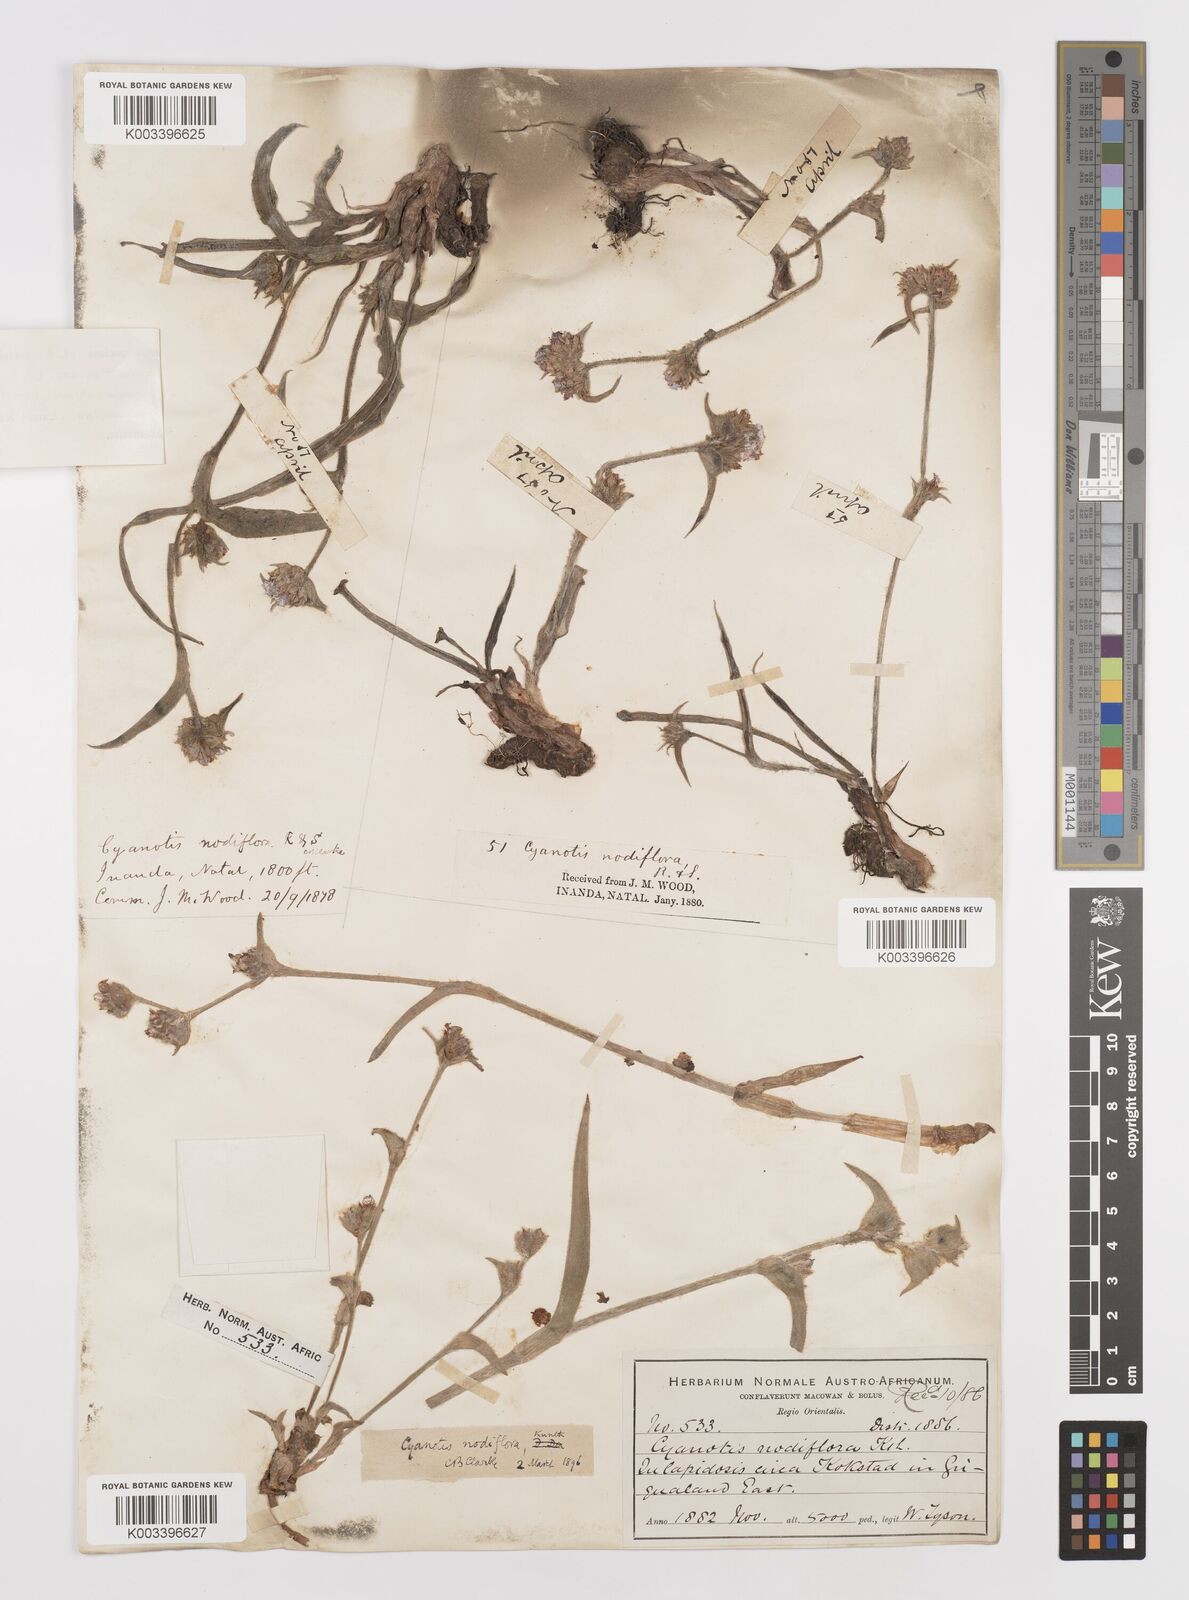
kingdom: Plantae
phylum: Tracheophyta
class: Liliopsida
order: Commelinales
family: Commelinaceae
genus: Cyanotis
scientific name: Cyanotis speciosa
